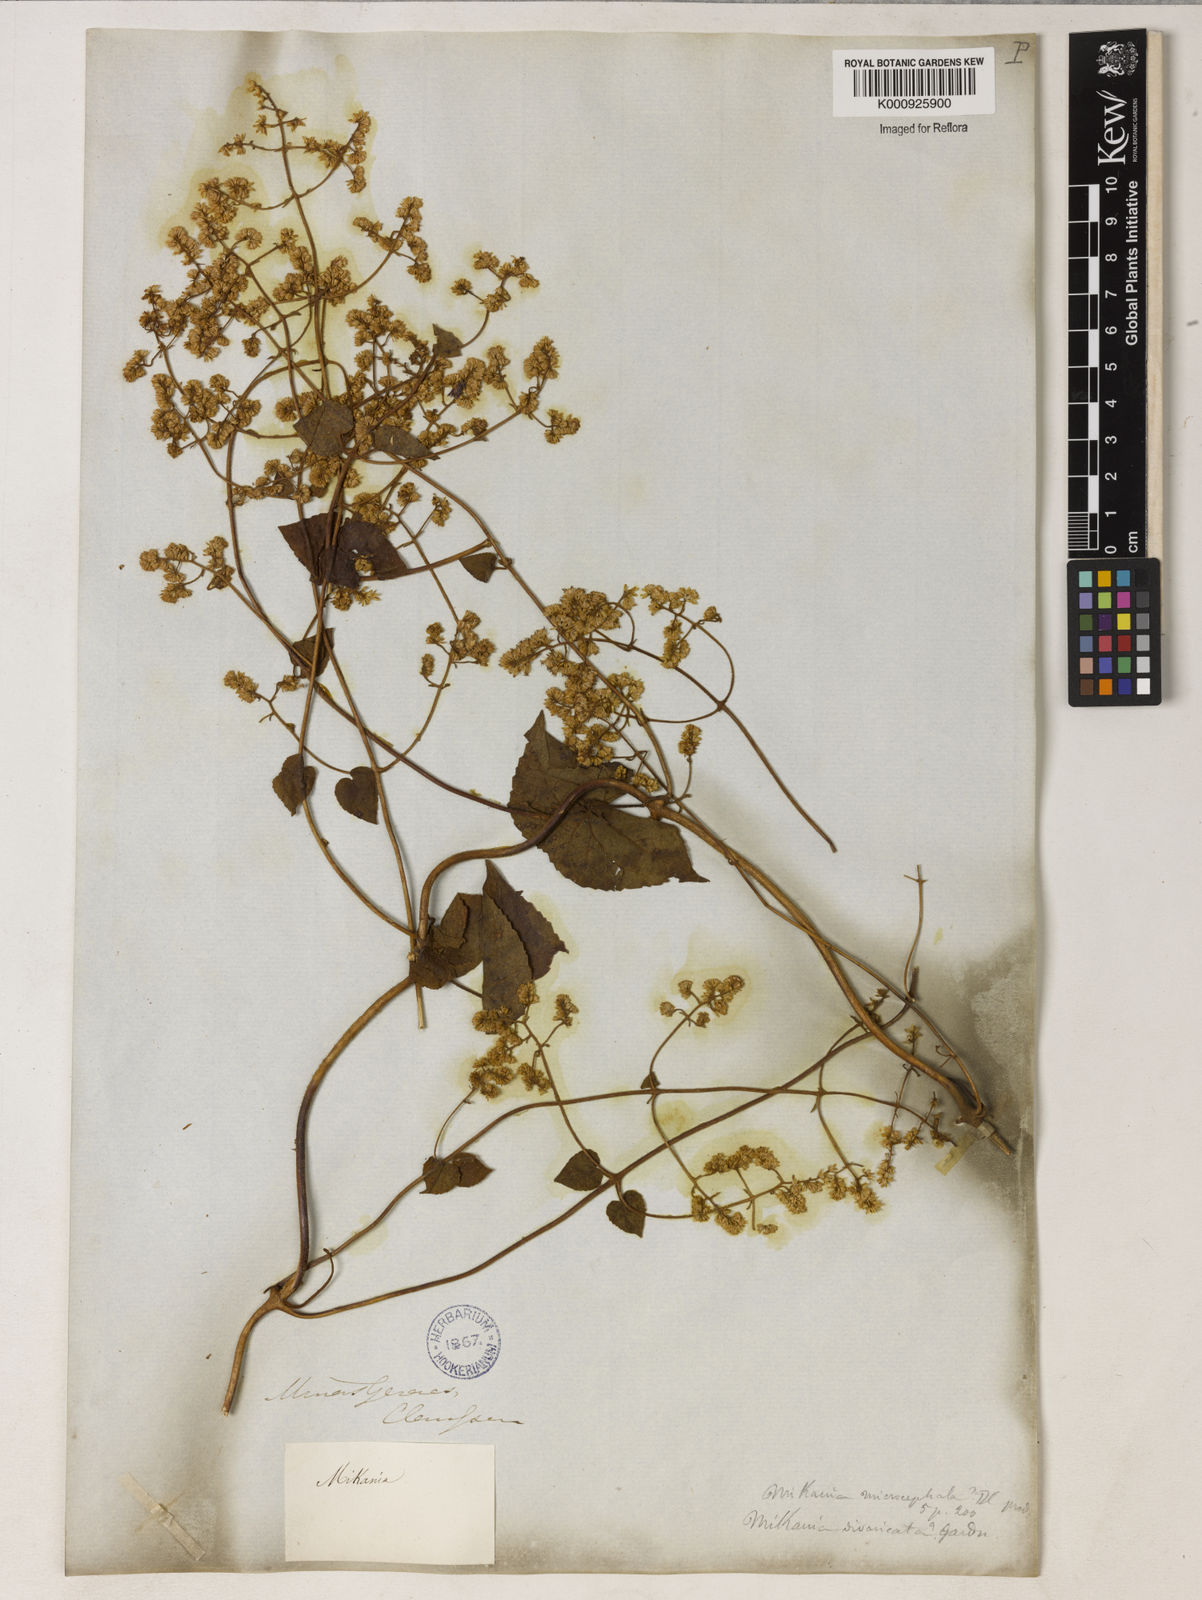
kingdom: Plantae
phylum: Tracheophyta
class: Magnoliopsida
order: Asterales
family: Asteraceae
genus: Mikania
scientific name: Mikania microcephala
